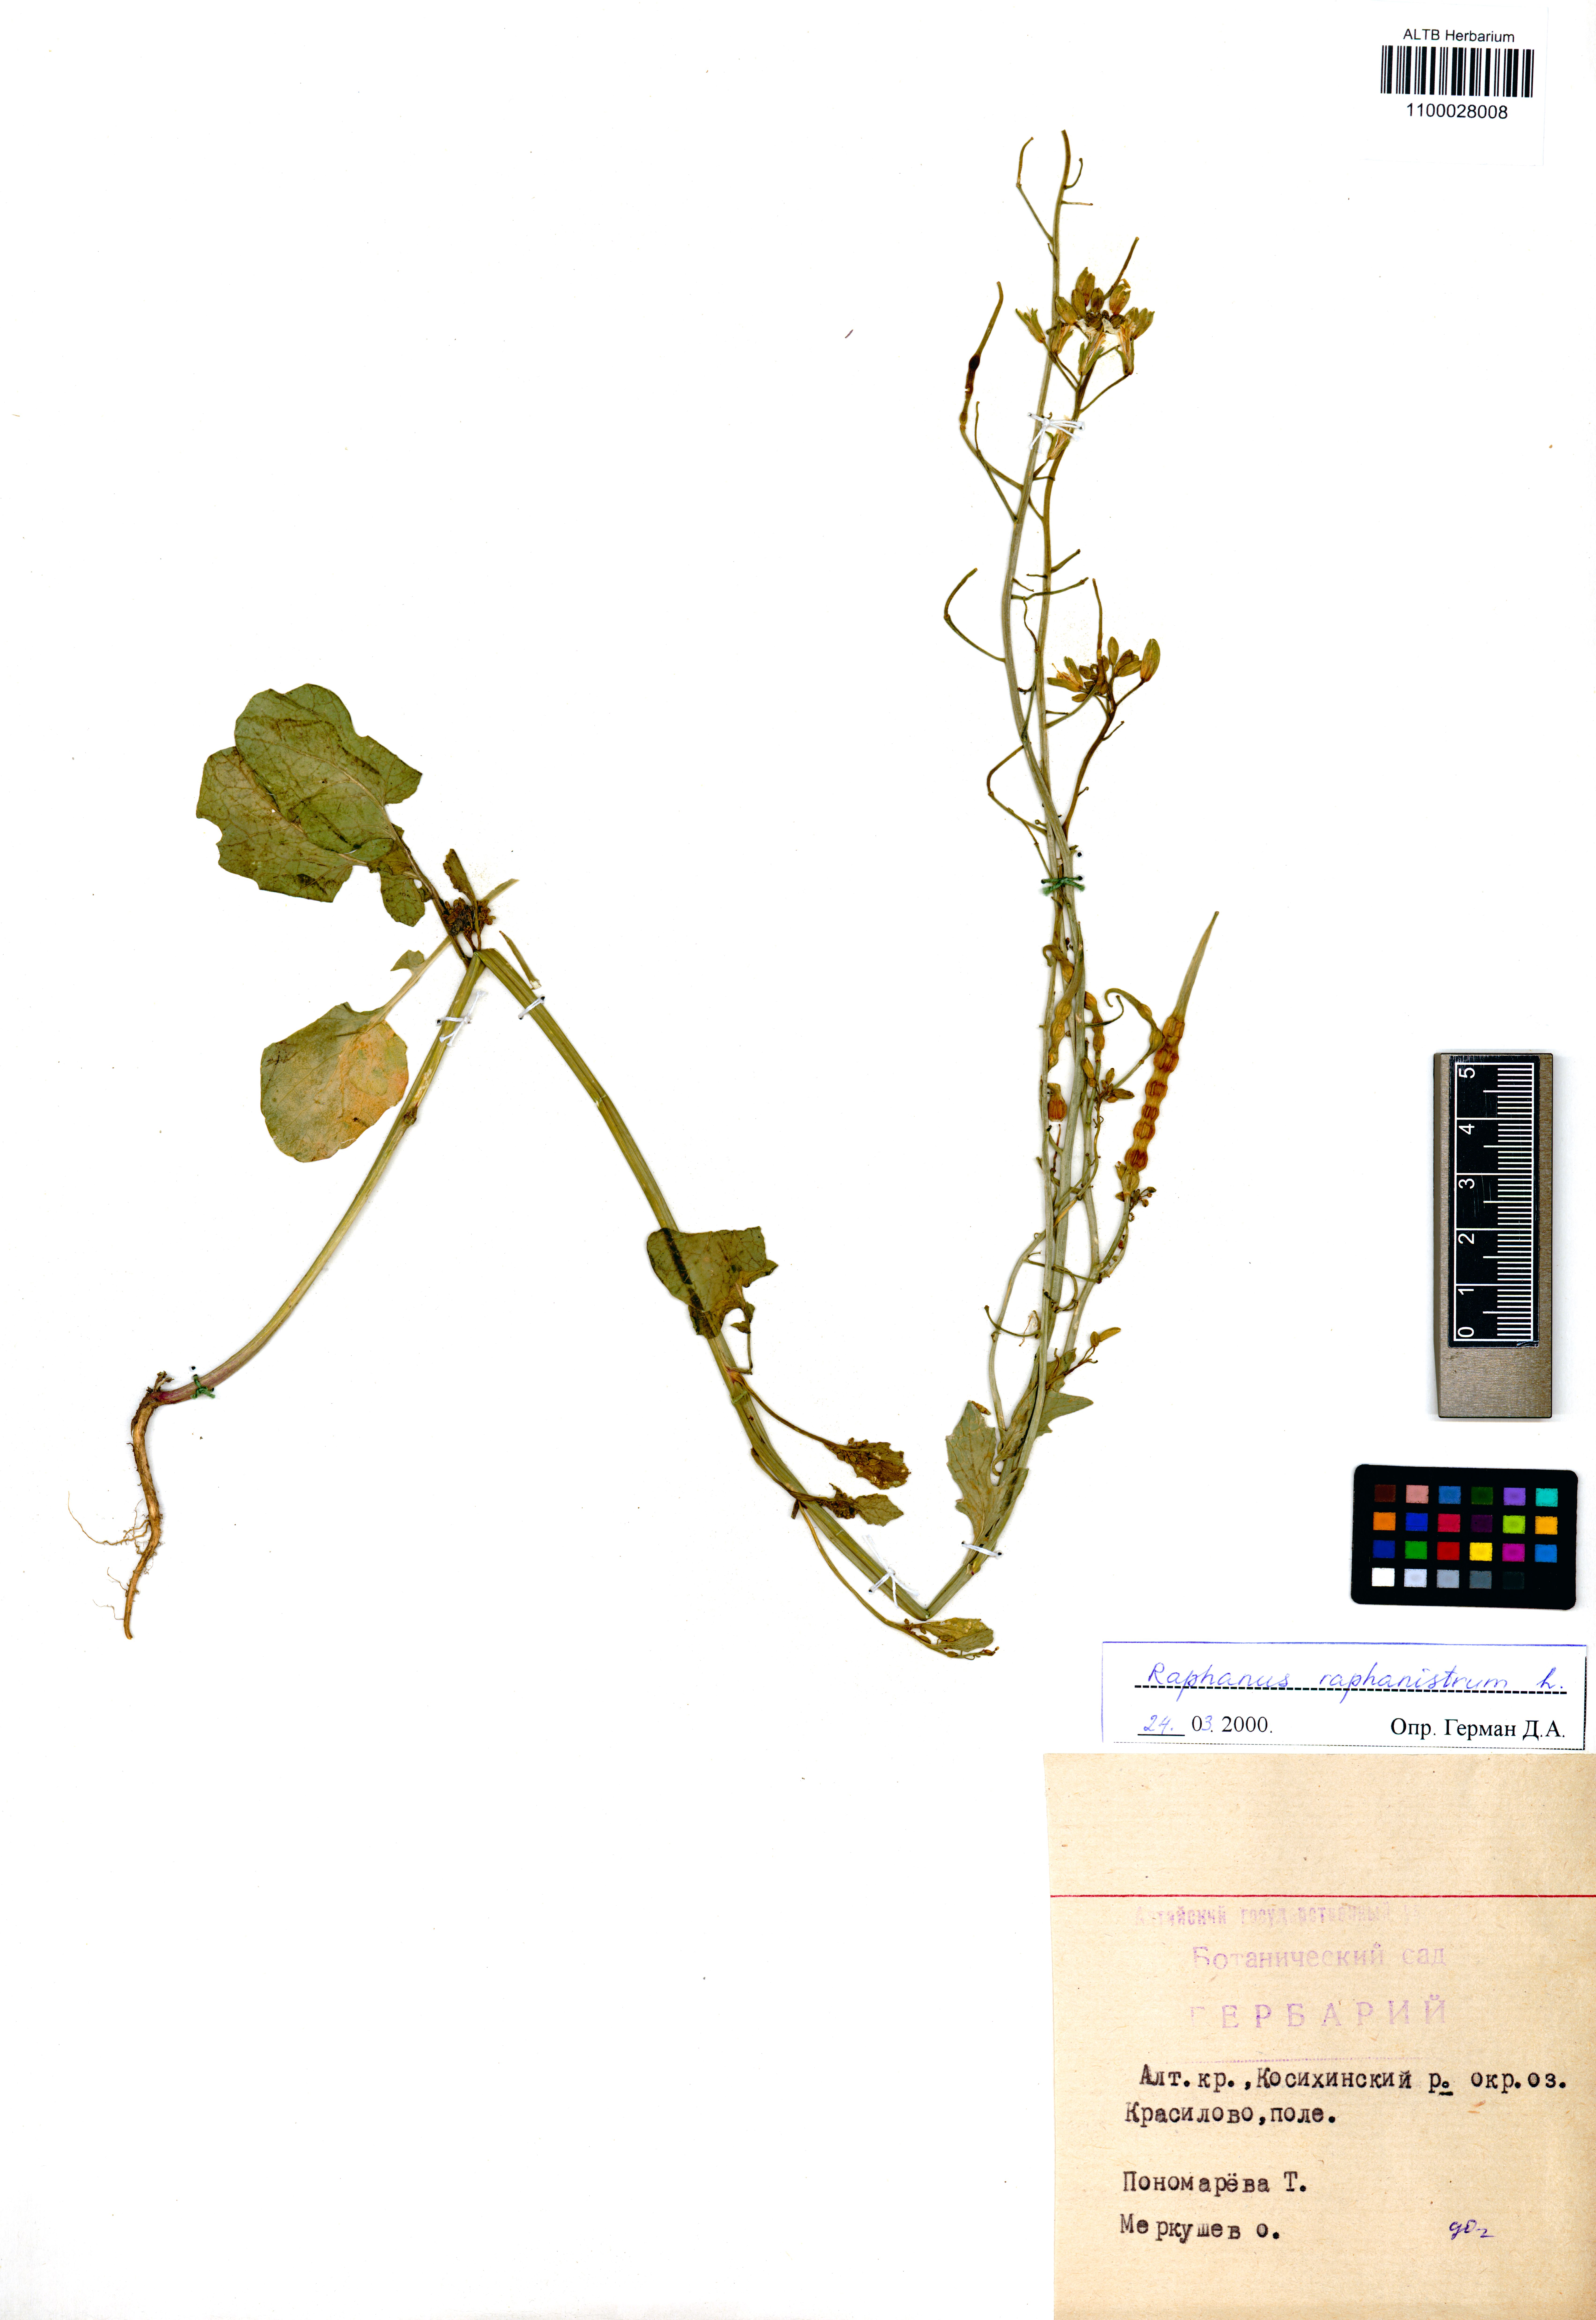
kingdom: Plantae
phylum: Tracheophyta
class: Magnoliopsida
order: Brassicales
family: Brassicaceae
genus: Raphanus
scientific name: Raphanus raphanistrum
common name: Wild radish
